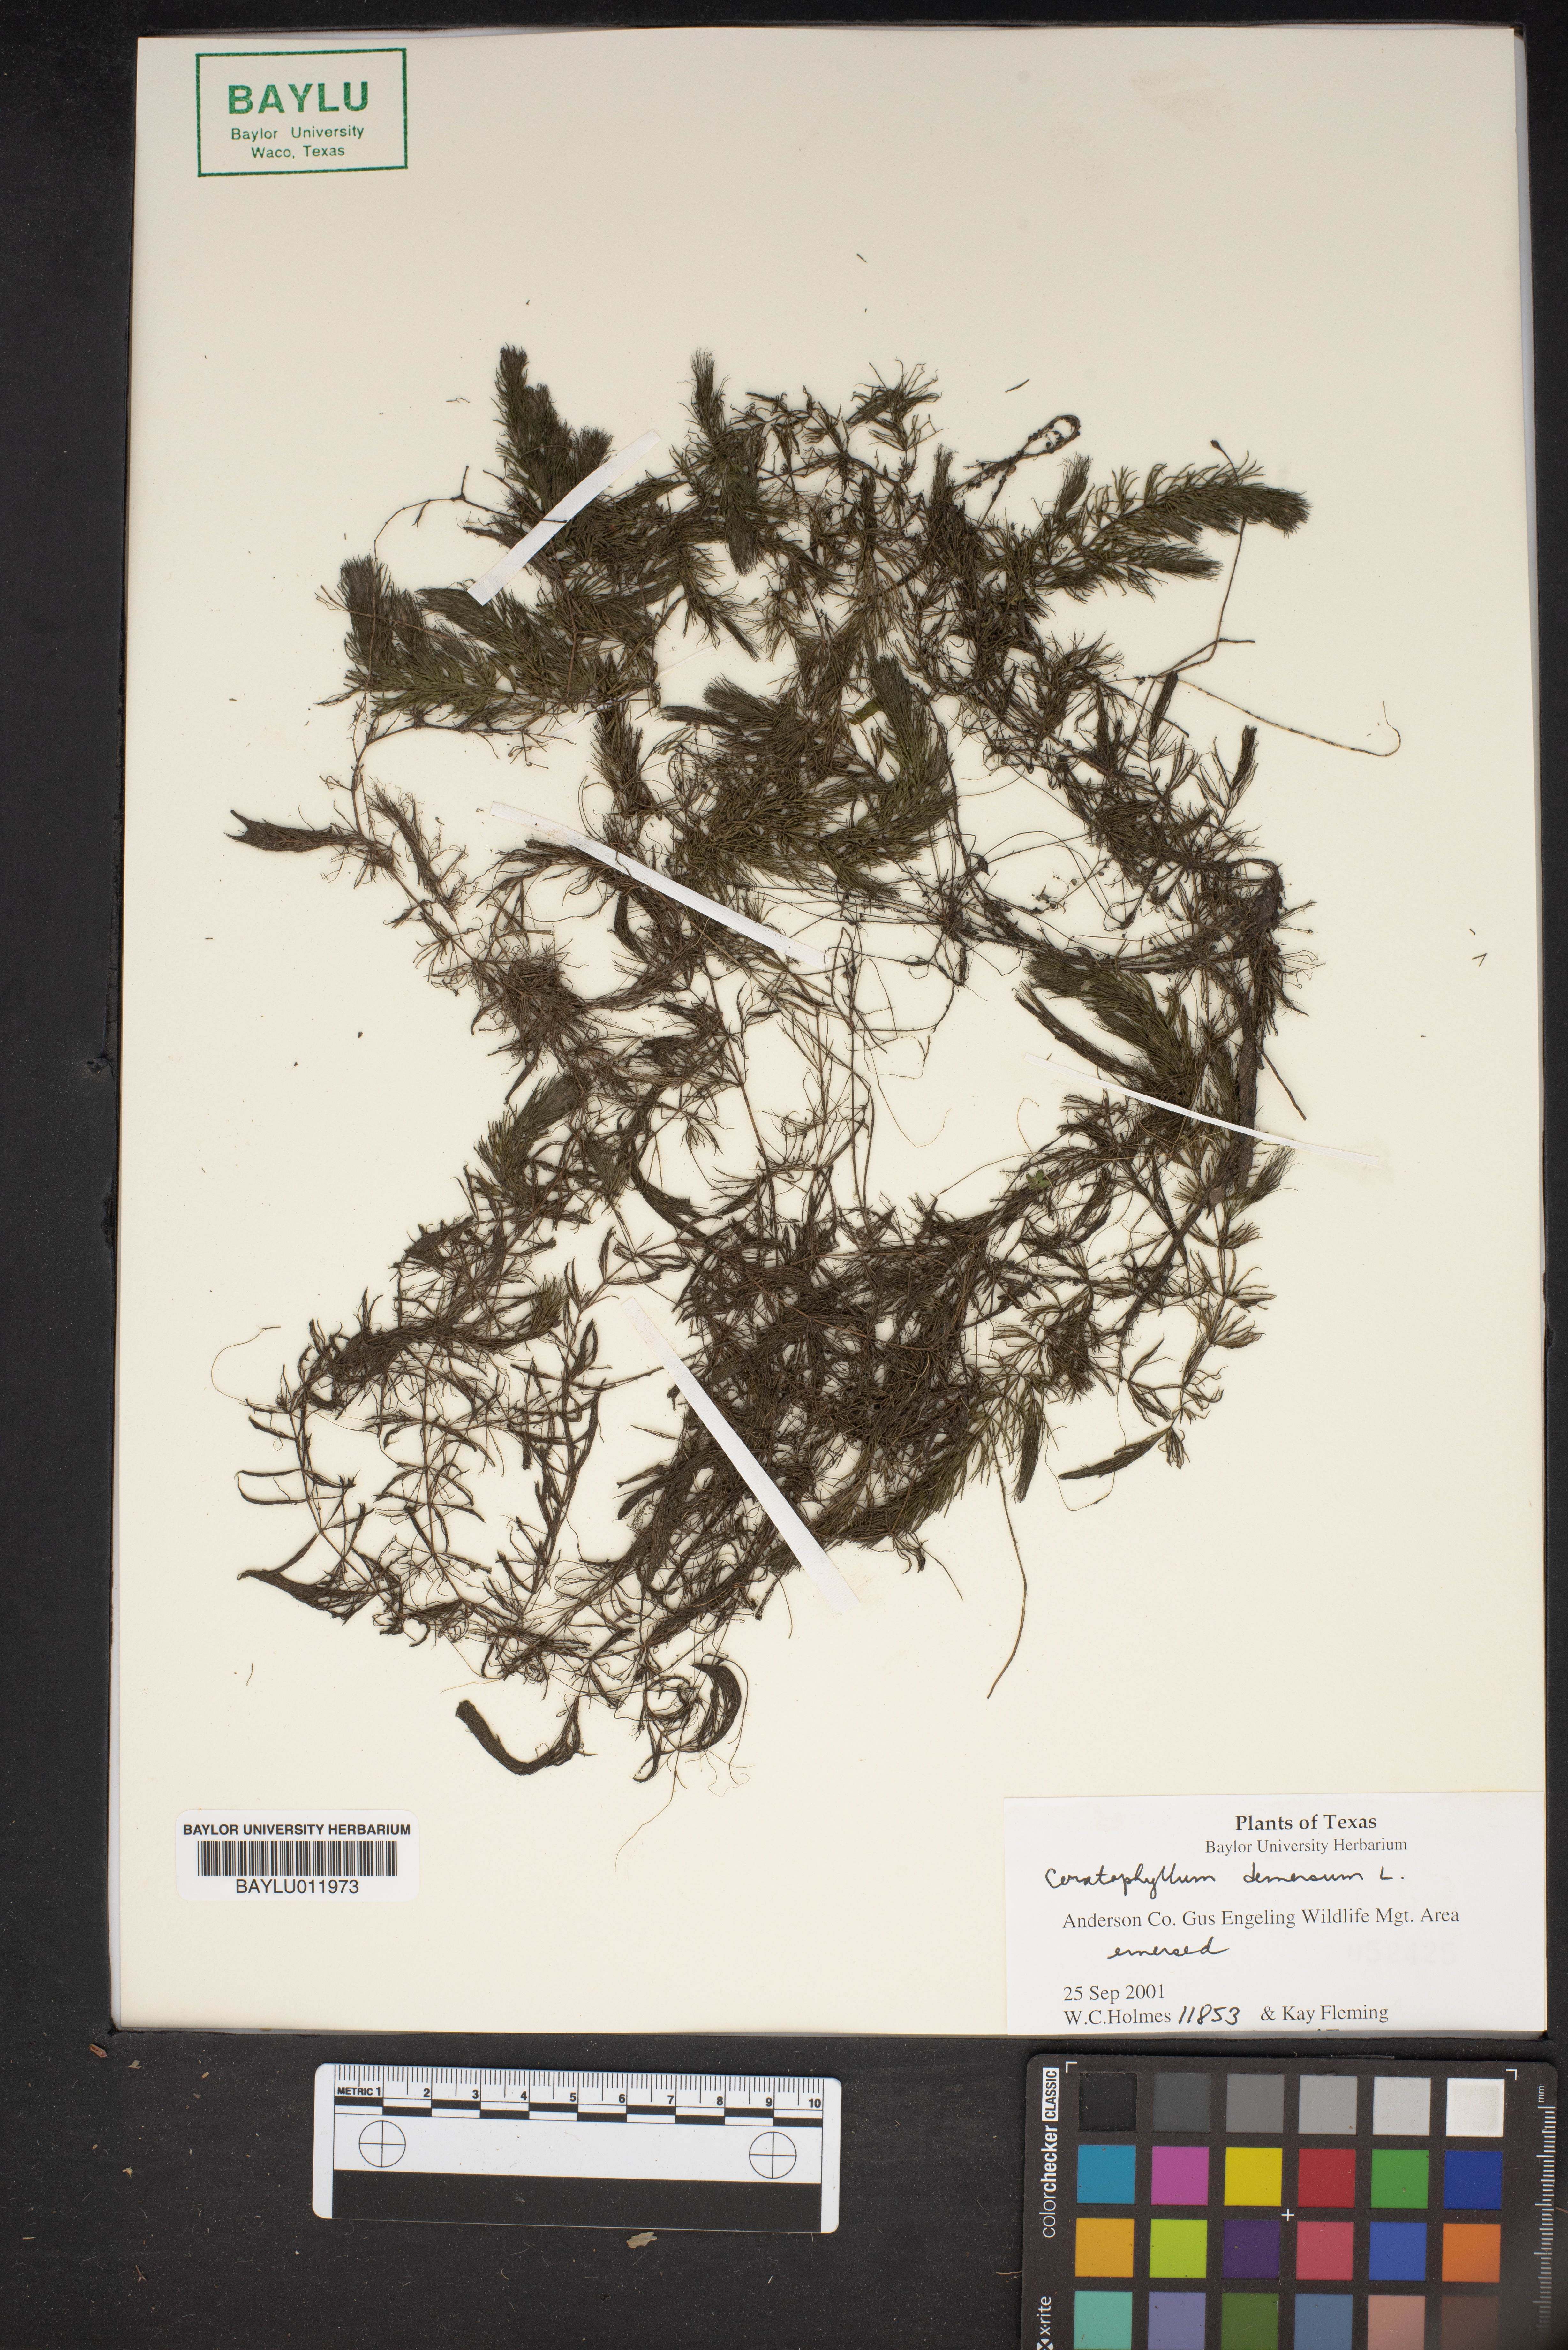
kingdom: Plantae
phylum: Tracheophyta
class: Magnoliopsida
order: Ceratophyllales
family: Ceratophyllaceae
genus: Ceratophyllum
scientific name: Ceratophyllum demersum
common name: Rigid hornwort
